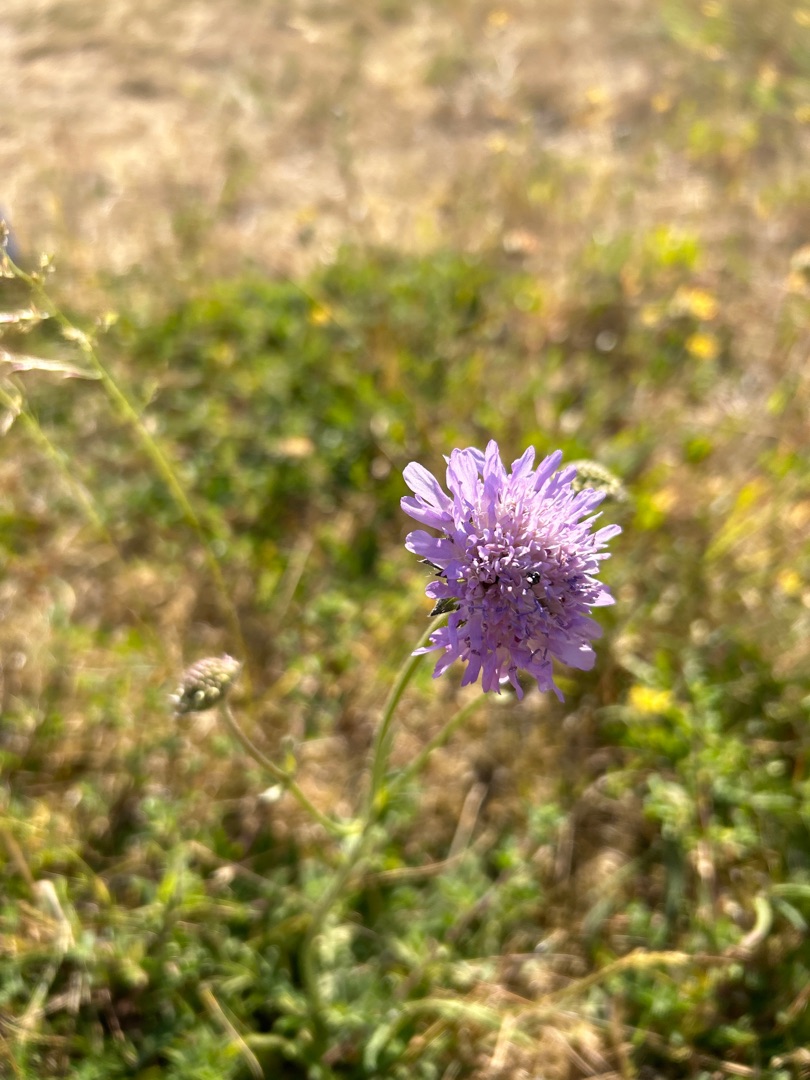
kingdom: Plantae
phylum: Tracheophyta
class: Magnoliopsida
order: Dipsacales
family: Caprifoliaceae
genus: Knautia
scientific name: Knautia arvensis
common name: Blåhat
